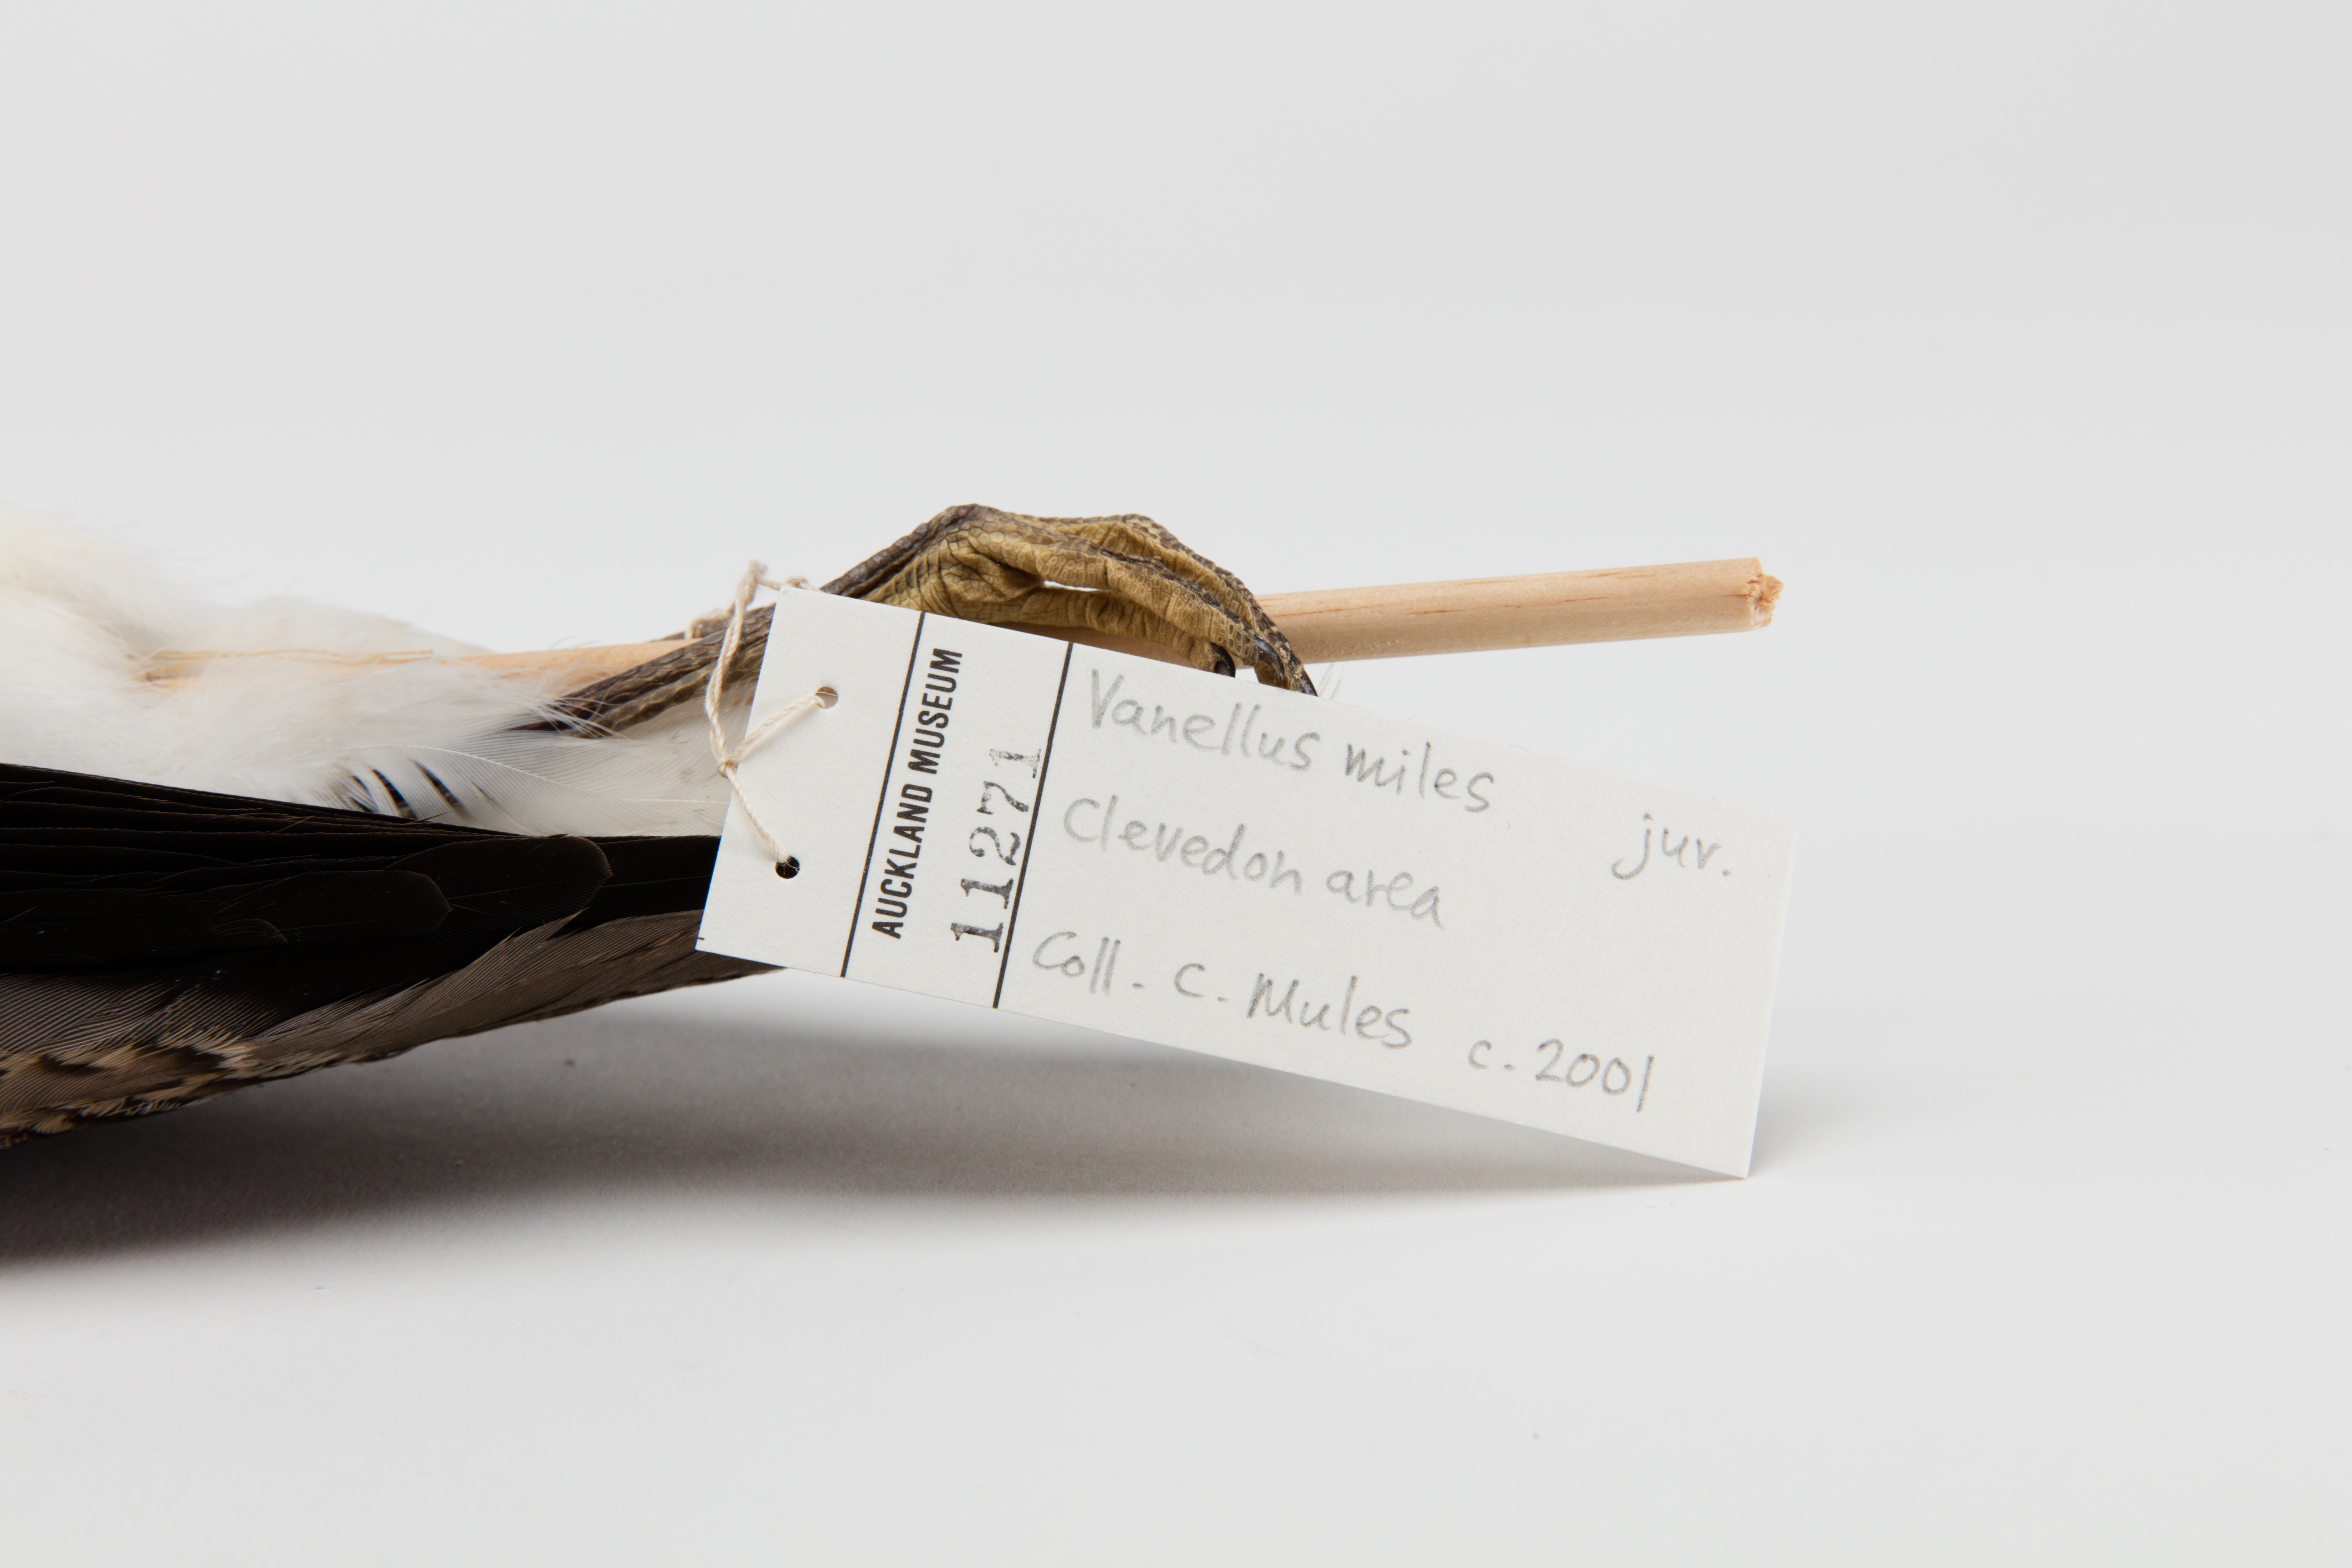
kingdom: Animalia
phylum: Chordata
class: Aves
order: Charadriiformes
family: Charadriidae
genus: Vanellus
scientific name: Vanellus miles
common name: Masked lapwing
